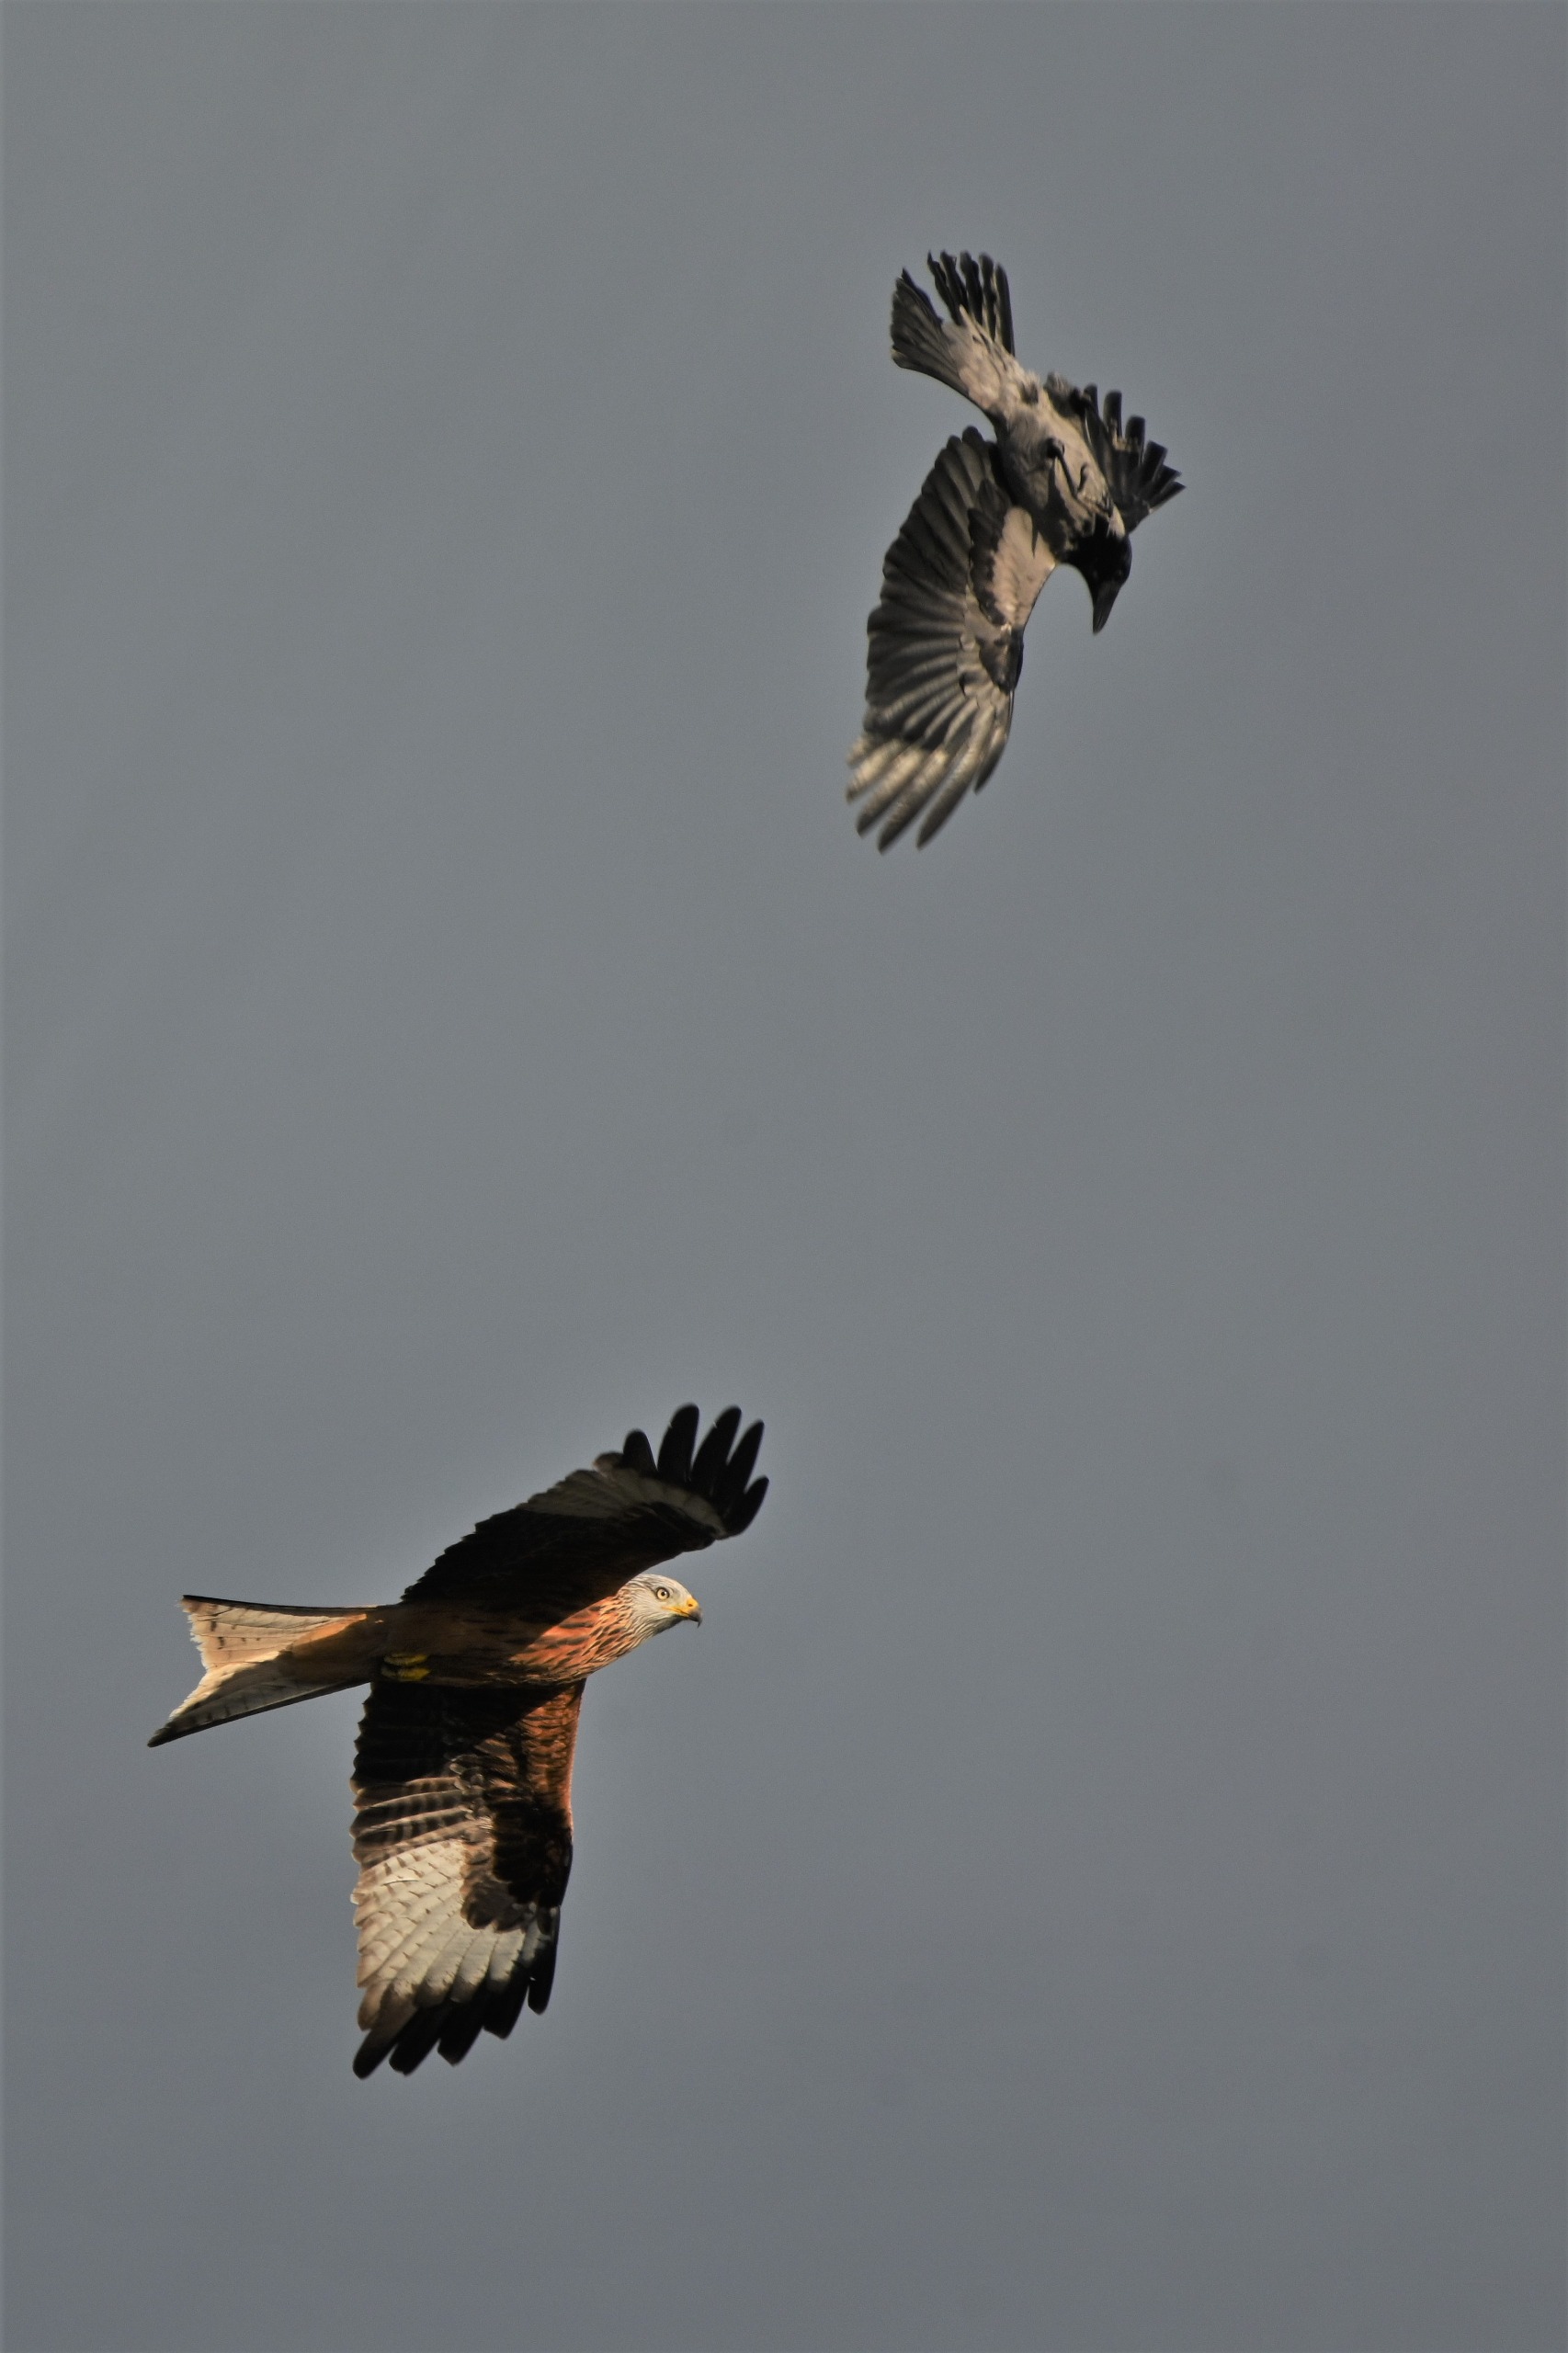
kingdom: Animalia
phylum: Chordata
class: Aves
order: Accipitriformes
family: Accipitridae
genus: Milvus
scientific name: Milvus milvus
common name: Rød glente
